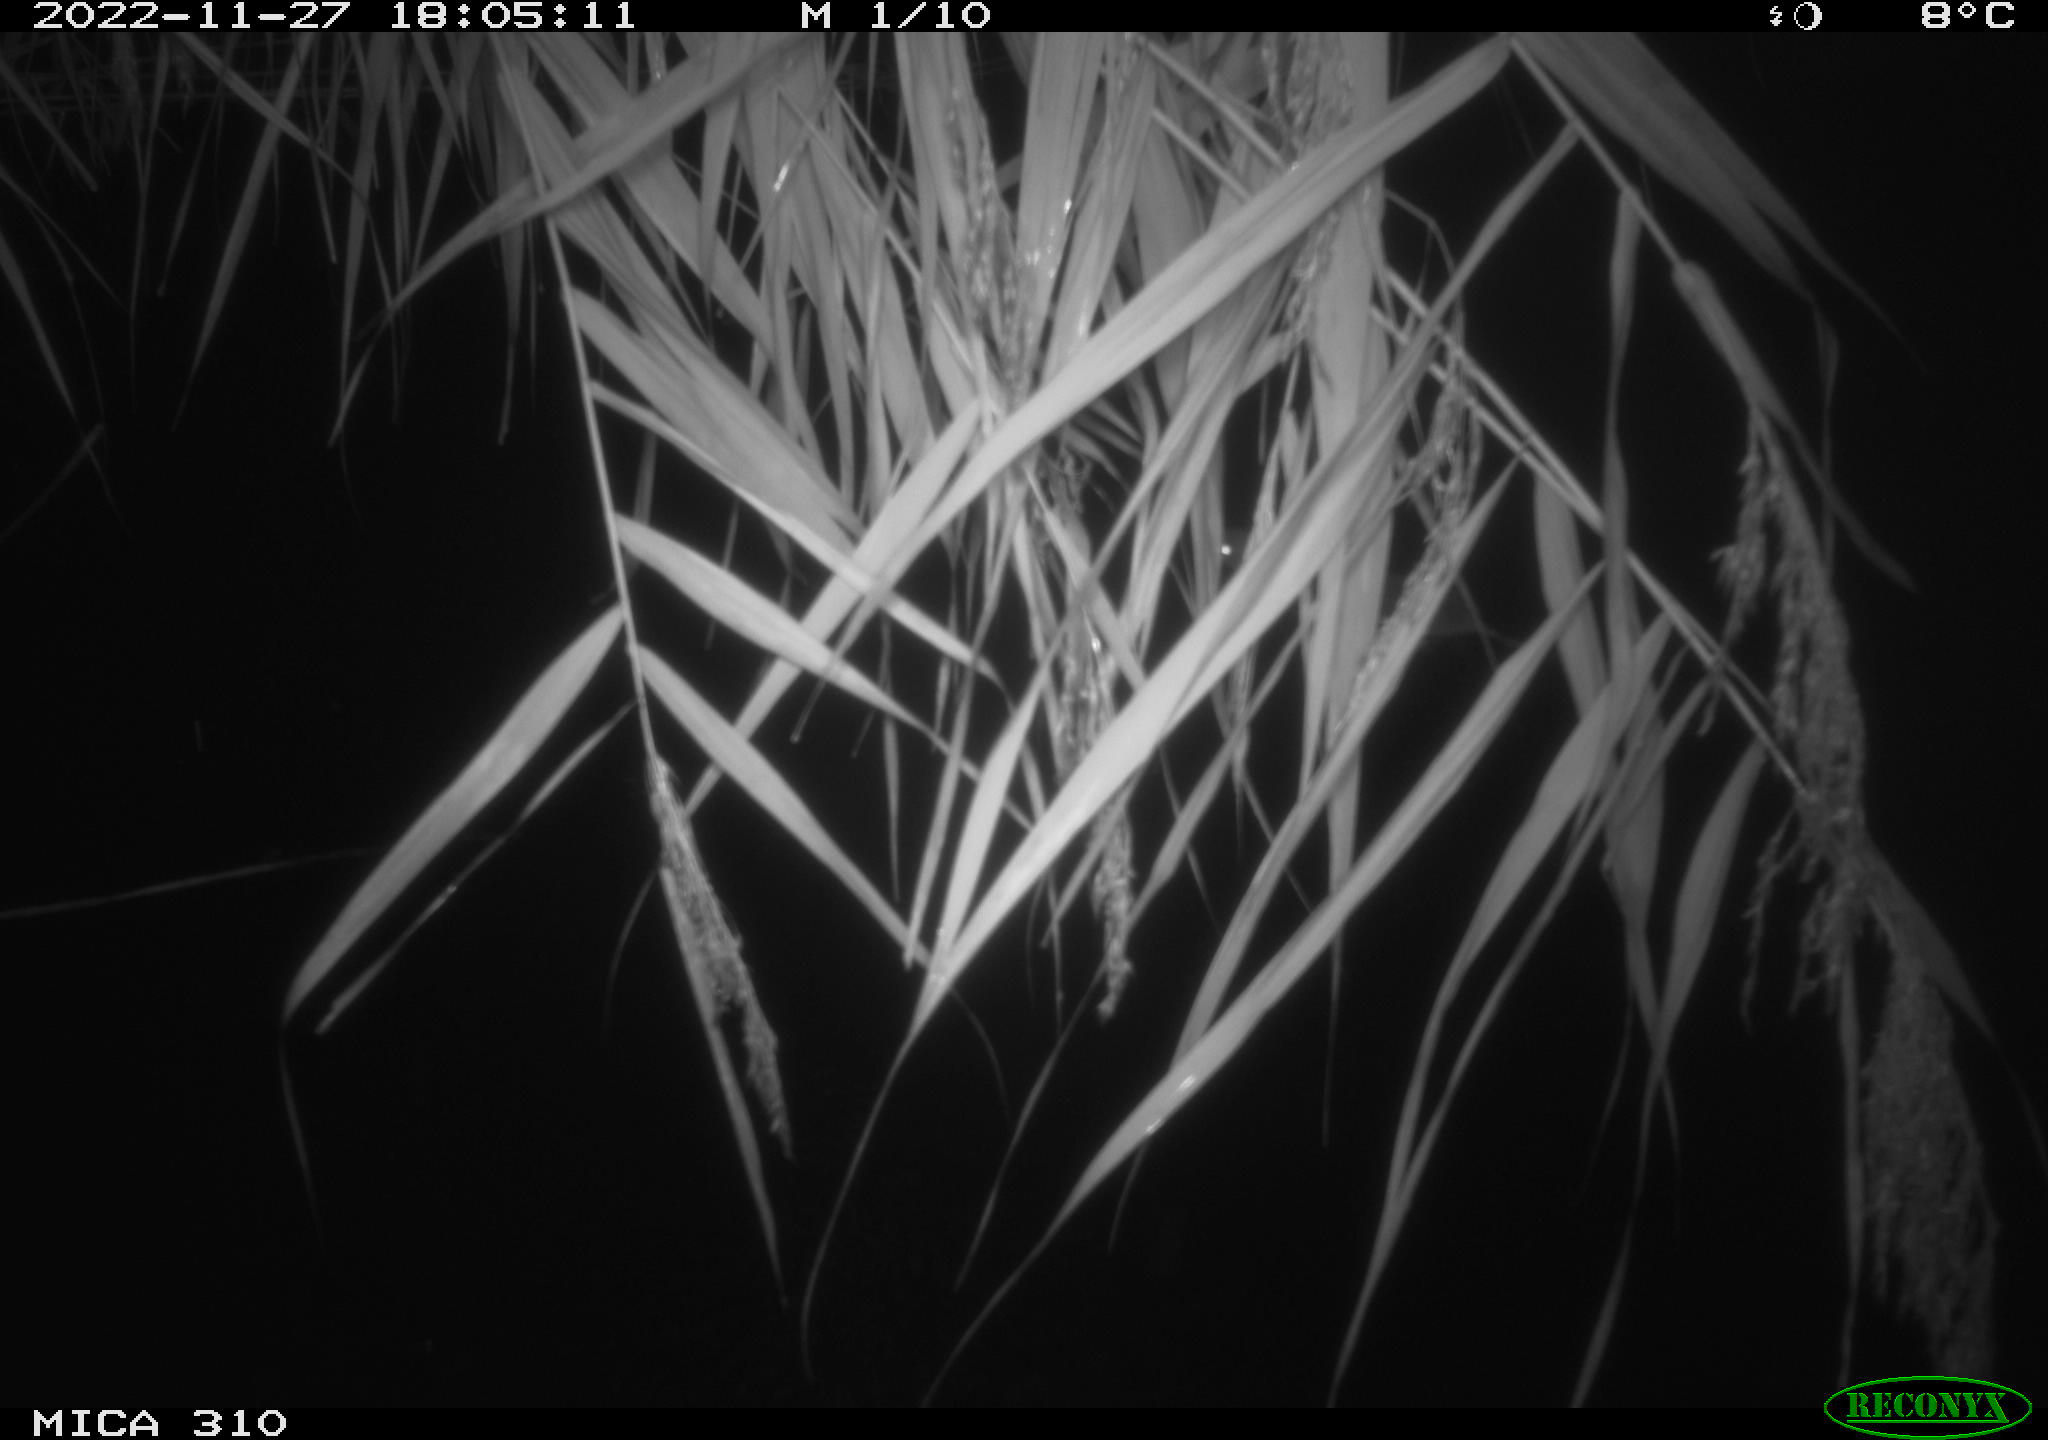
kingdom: Animalia
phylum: Chordata
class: Mammalia
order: Rodentia
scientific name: Rodentia
